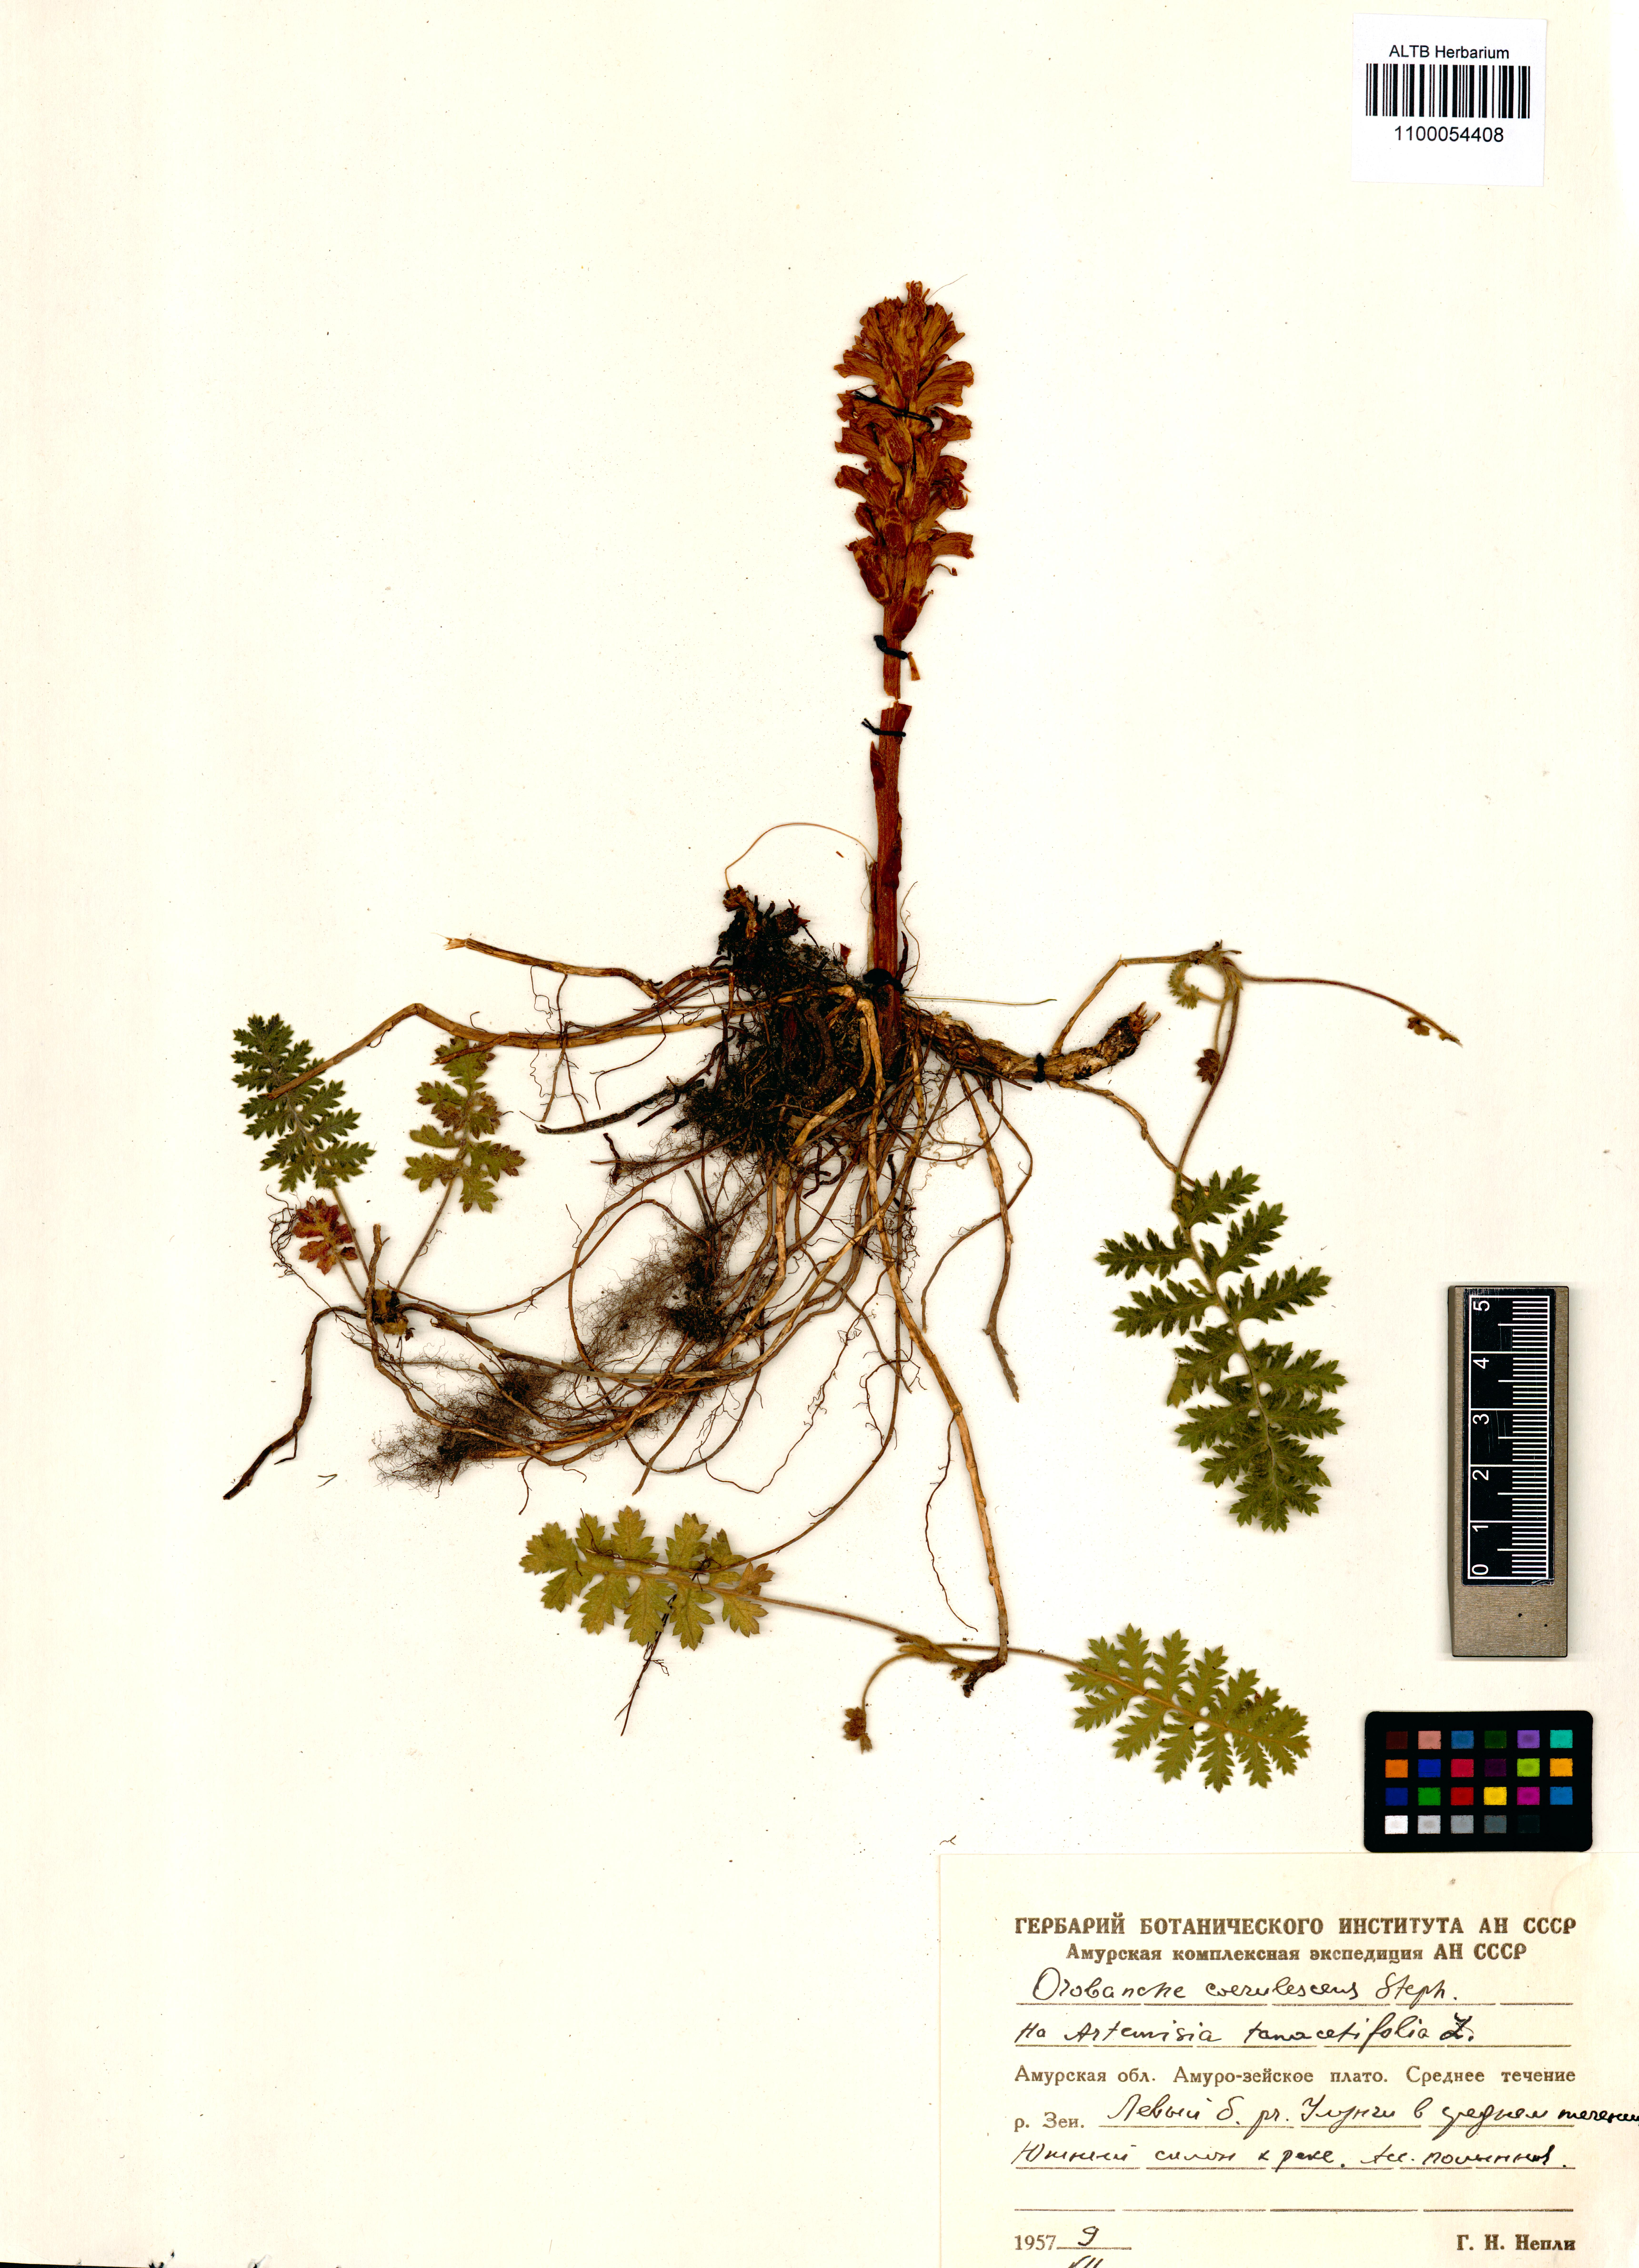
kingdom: Plantae
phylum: Tracheophyta
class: Magnoliopsida
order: Lamiales
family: Orobanchaceae
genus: Orobanche
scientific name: Orobanche coerulescens
